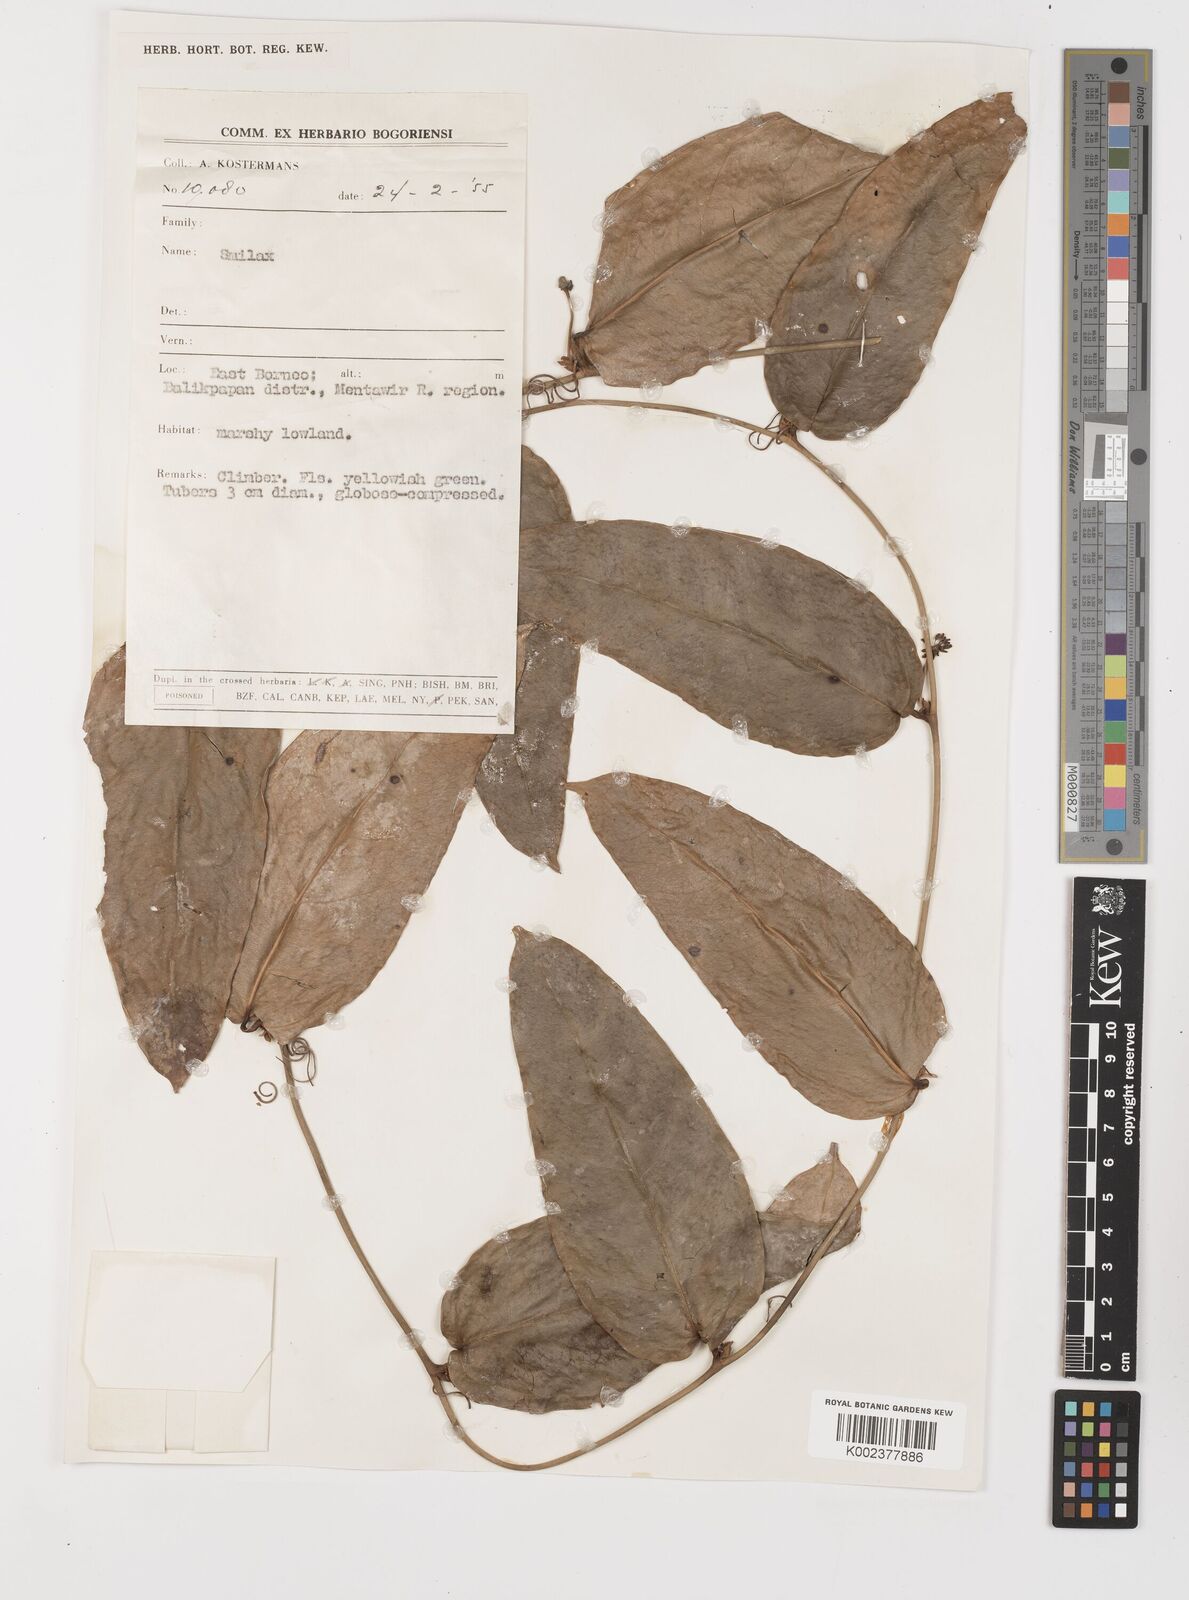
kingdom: Plantae
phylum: Tracheophyta
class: Liliopsida
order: Liliales
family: Smilacaceae
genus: Smilax
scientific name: Smilax
